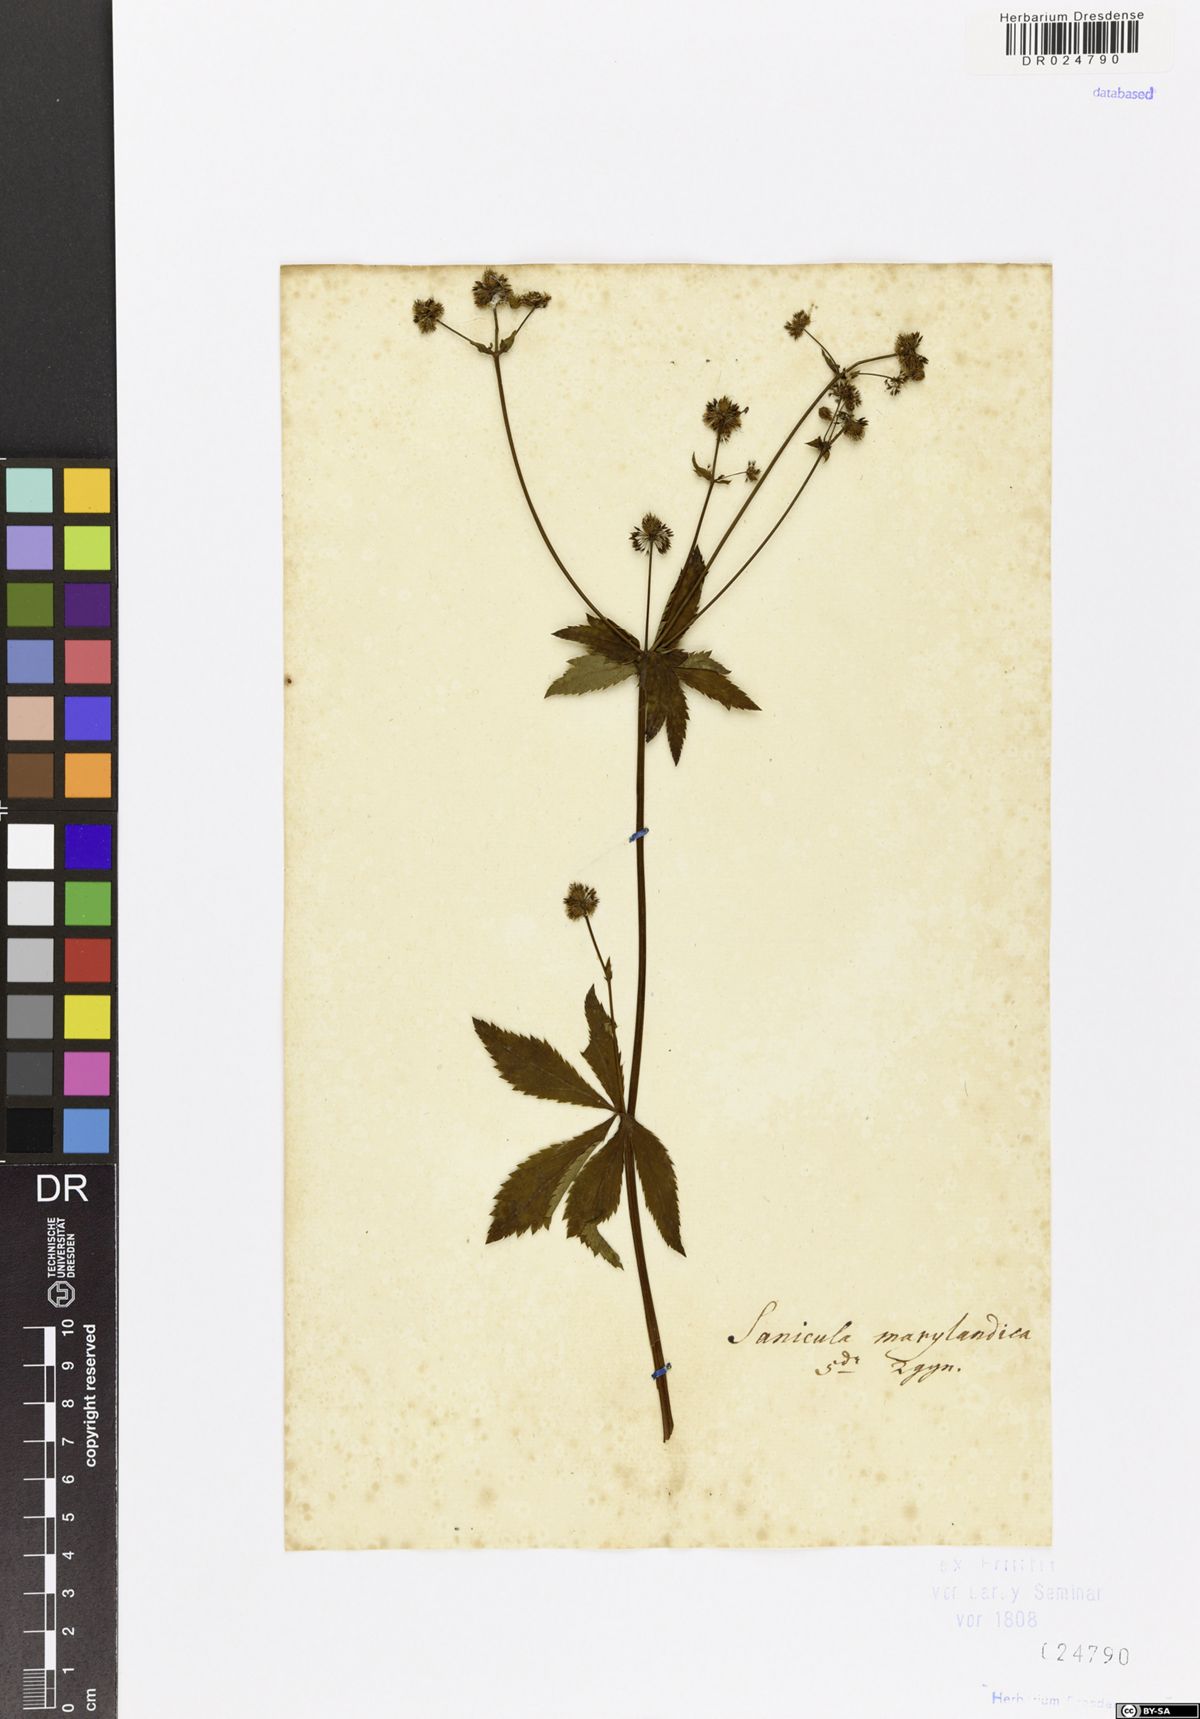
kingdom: Plantae
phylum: Tracheophyta
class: Magnoliopsida
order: Apiales
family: Apiaceae
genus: Sanicula
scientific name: Sanicula marilandica
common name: Black snakeroot
